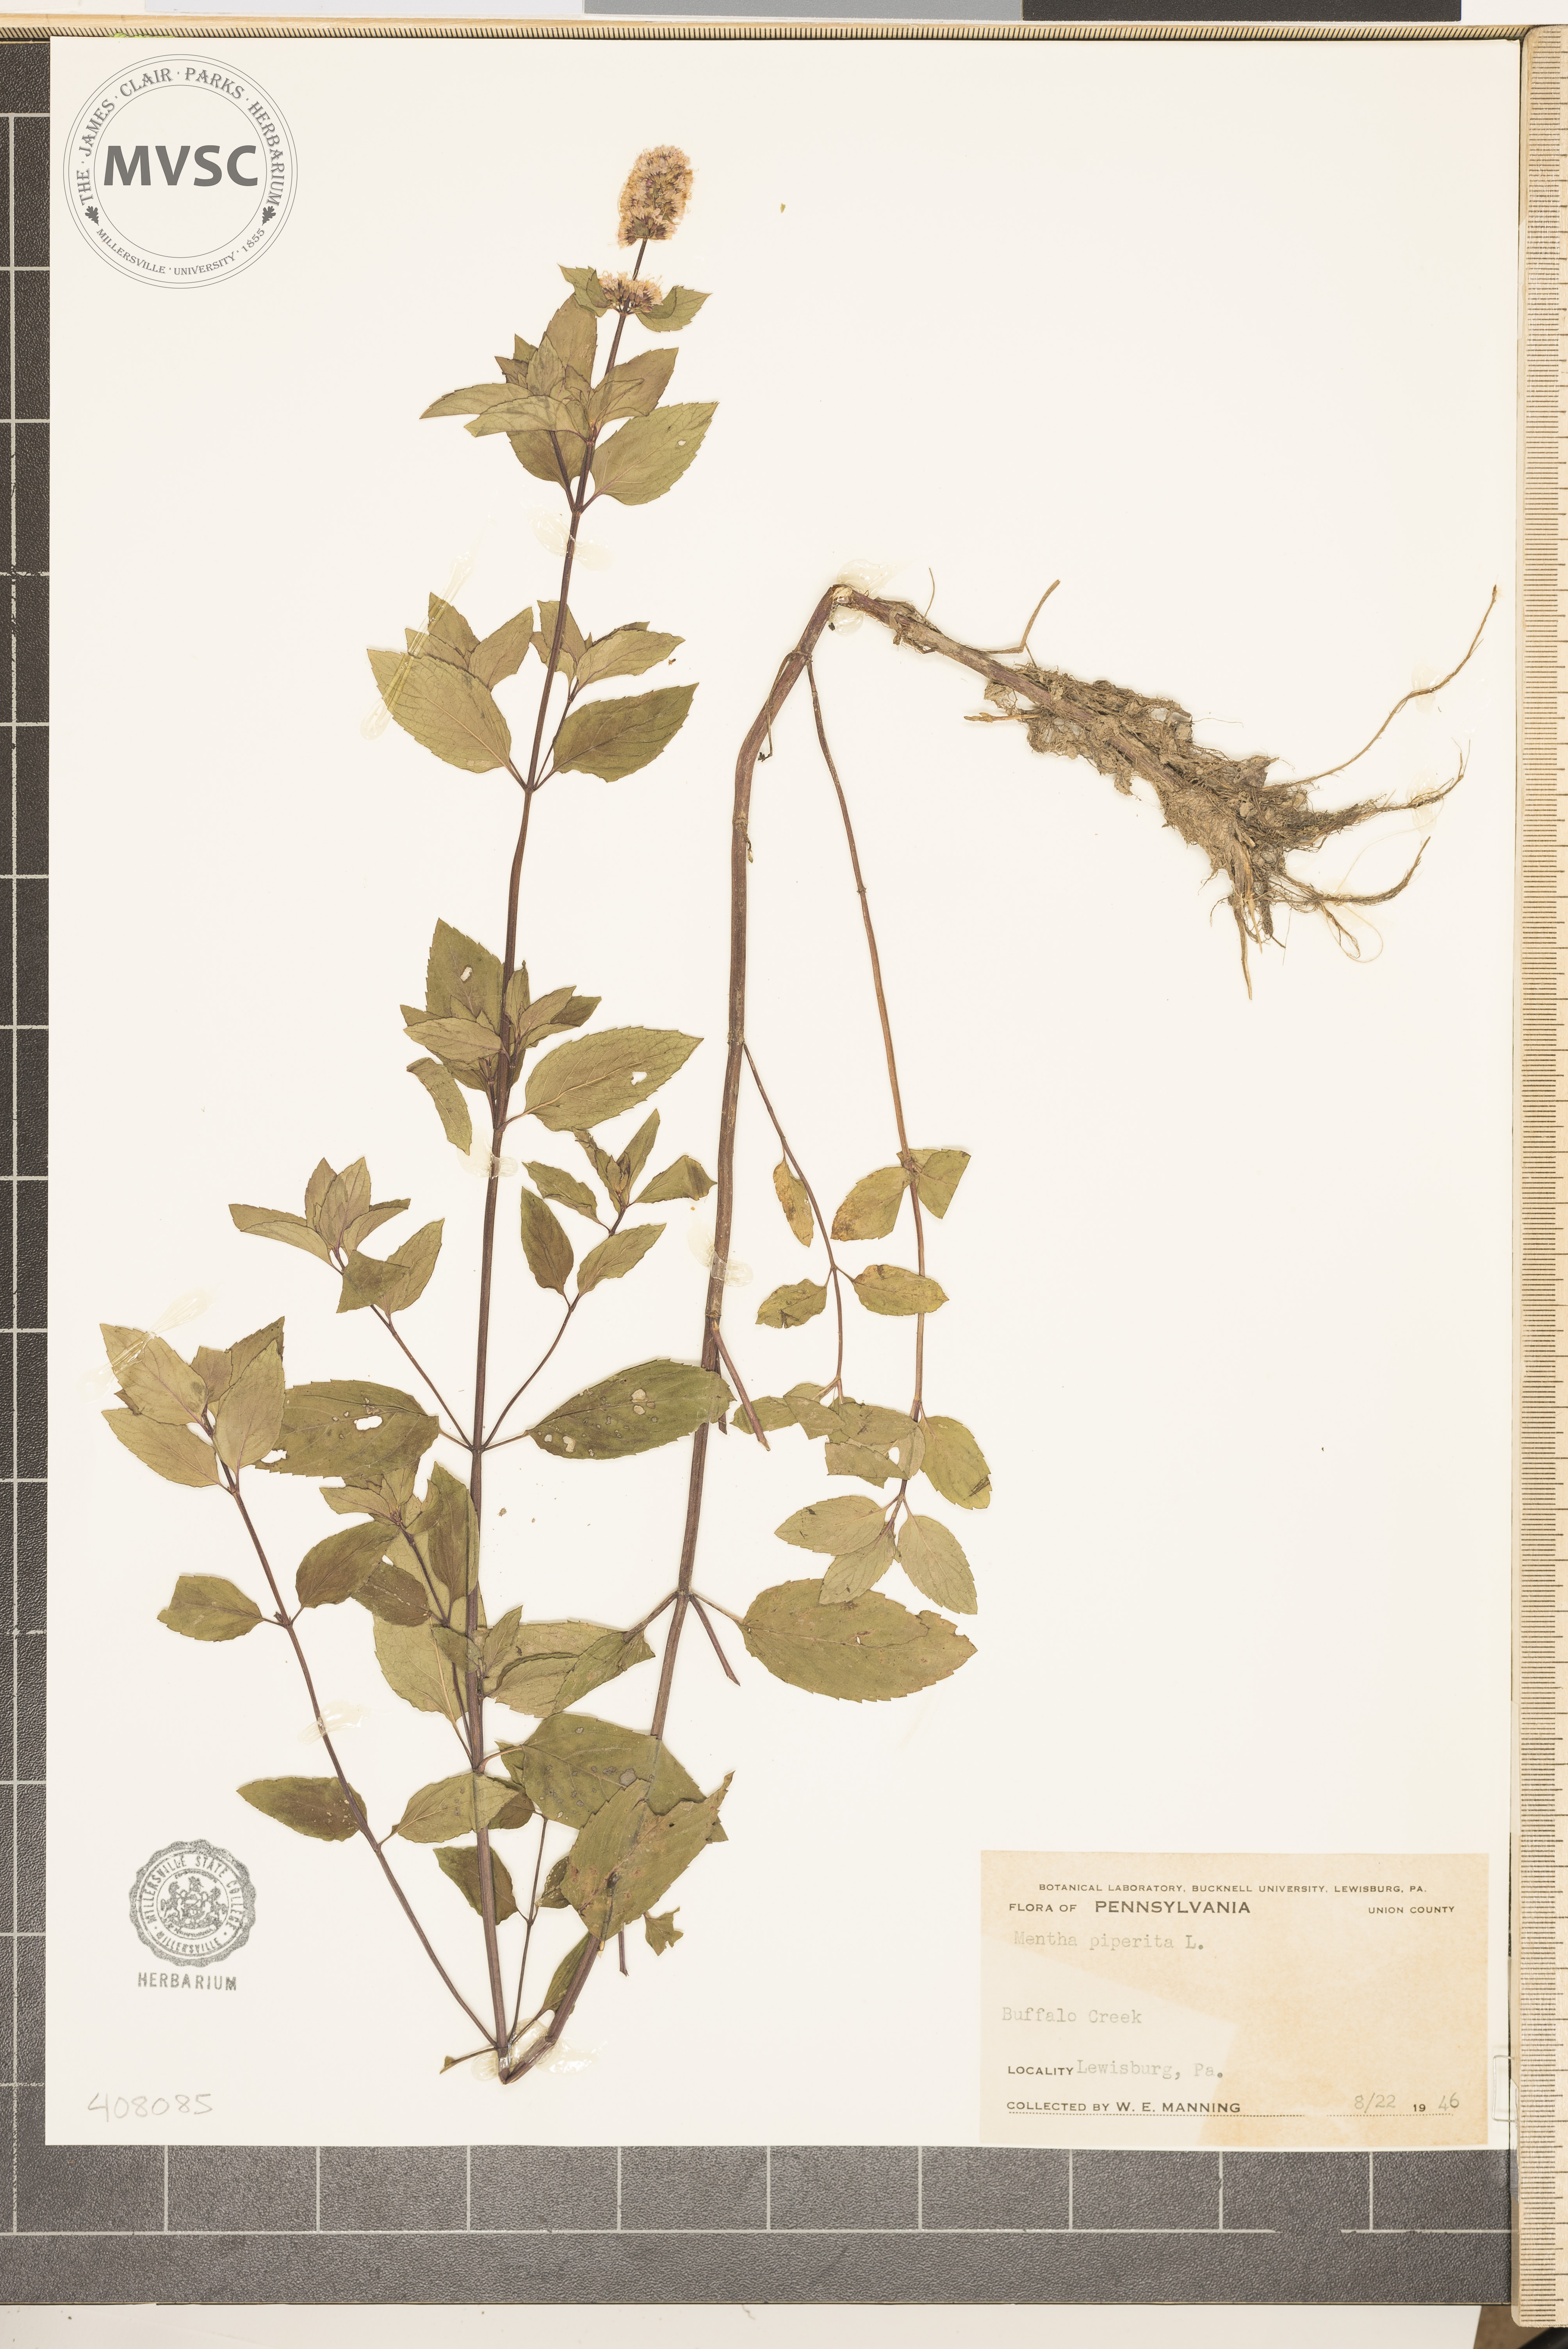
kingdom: Plantae
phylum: Tracheophyta
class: Magnoliopsida
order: Lamiales
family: Lamiaceae
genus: Mentha
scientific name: Mentha piperita
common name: Peppermint
